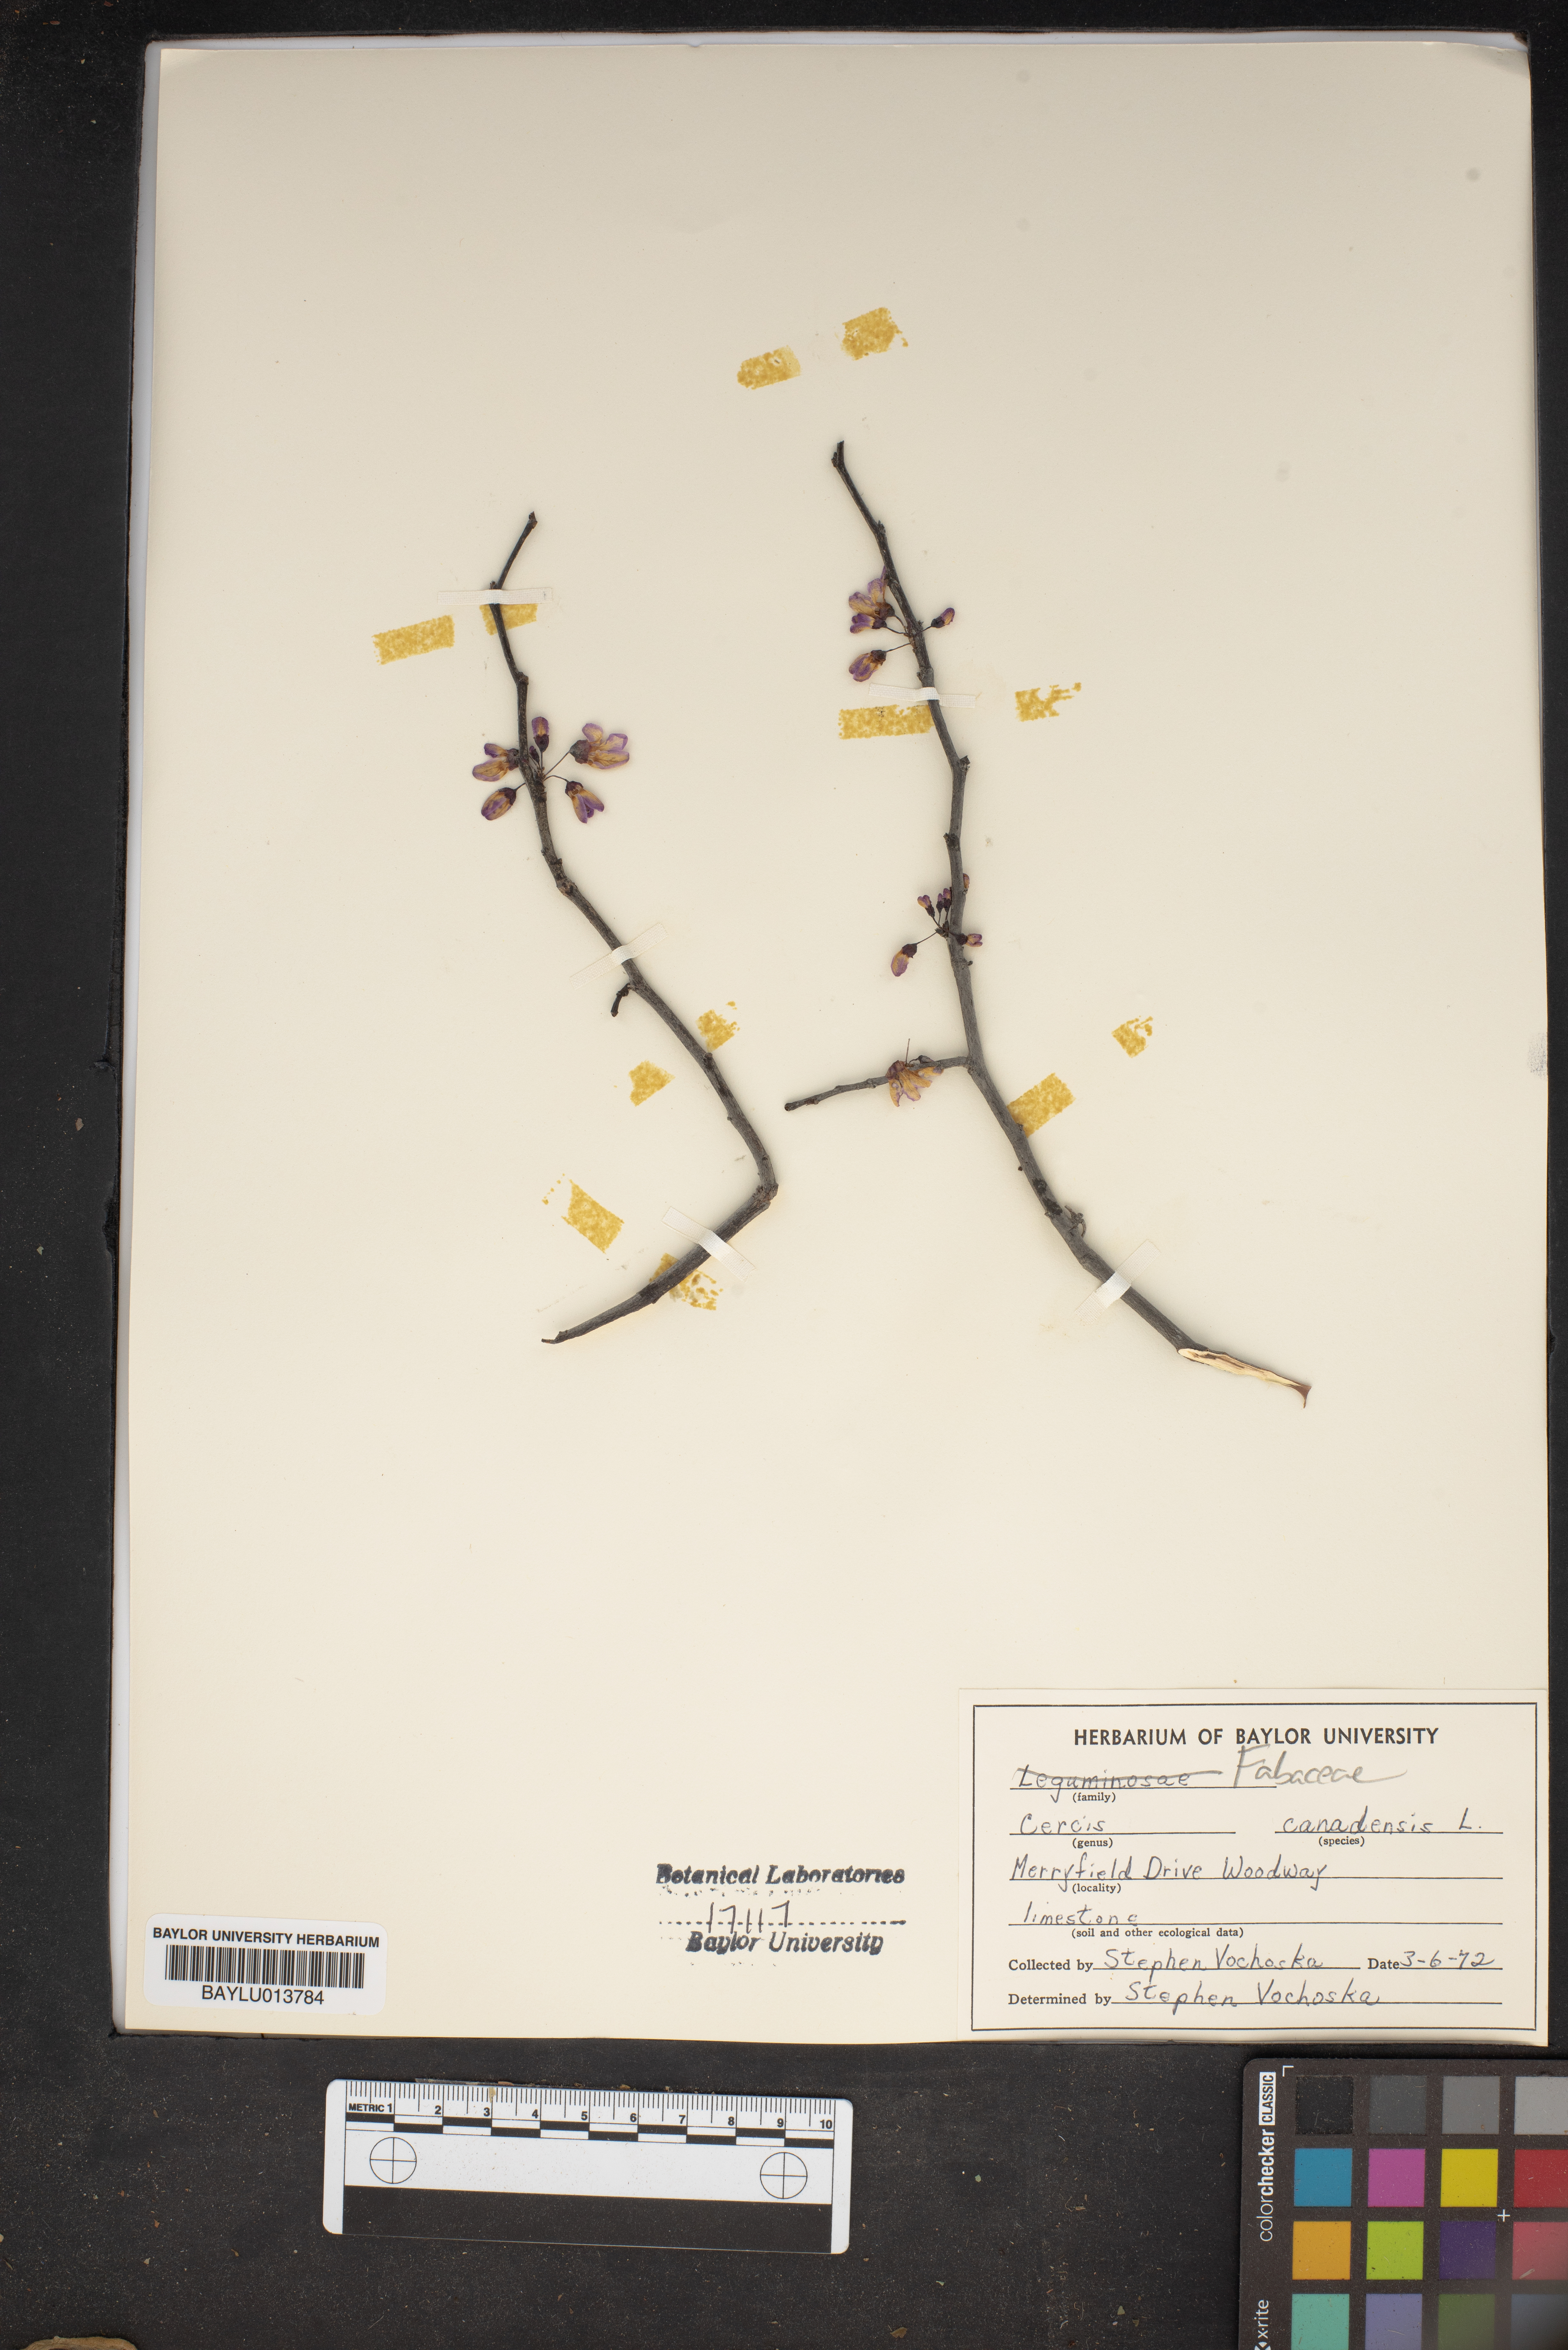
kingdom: Plantae
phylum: Tracheophyta
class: Magnoliopsida
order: Fabales
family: Fabaceae
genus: Cercis
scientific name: Cercis canadensis
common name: Eastern redbud
